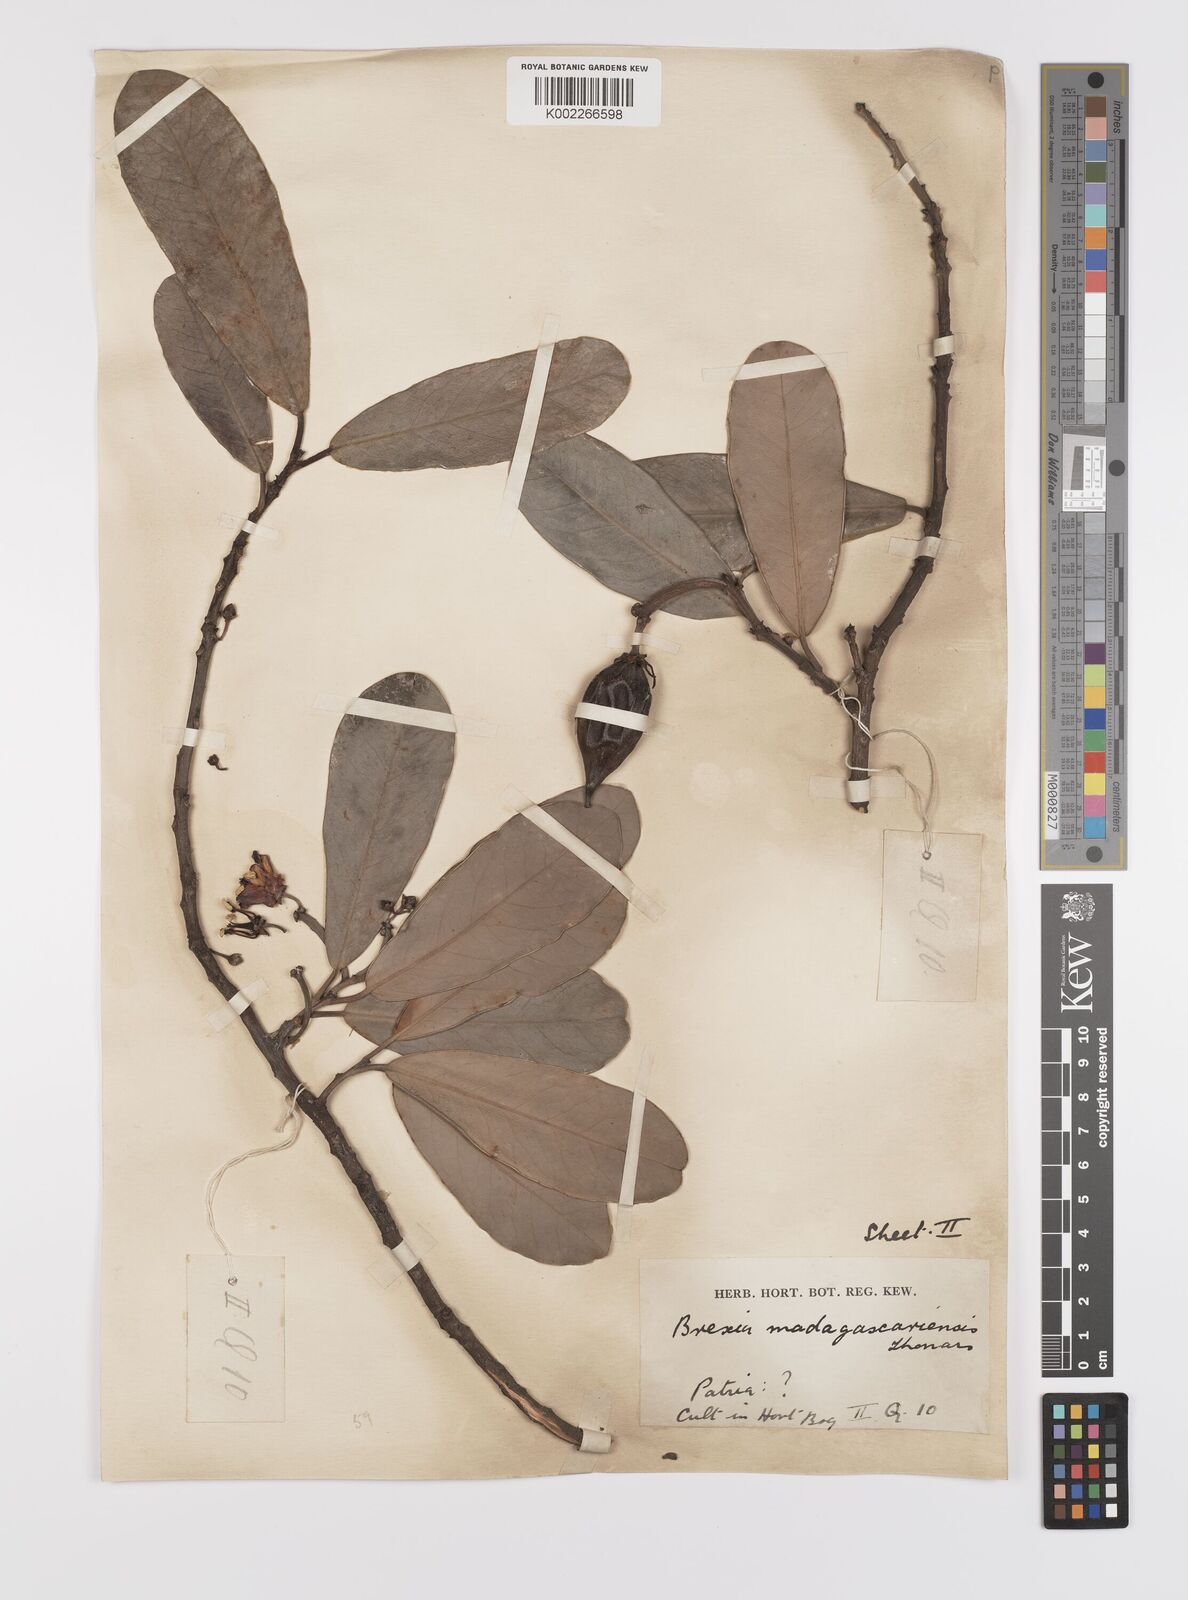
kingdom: Plantae
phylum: Tracheophyta
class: Magnoliopsida
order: Celastrales
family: Celastraceae
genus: Brexia
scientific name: Brexia madagascariensis
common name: Brexia
